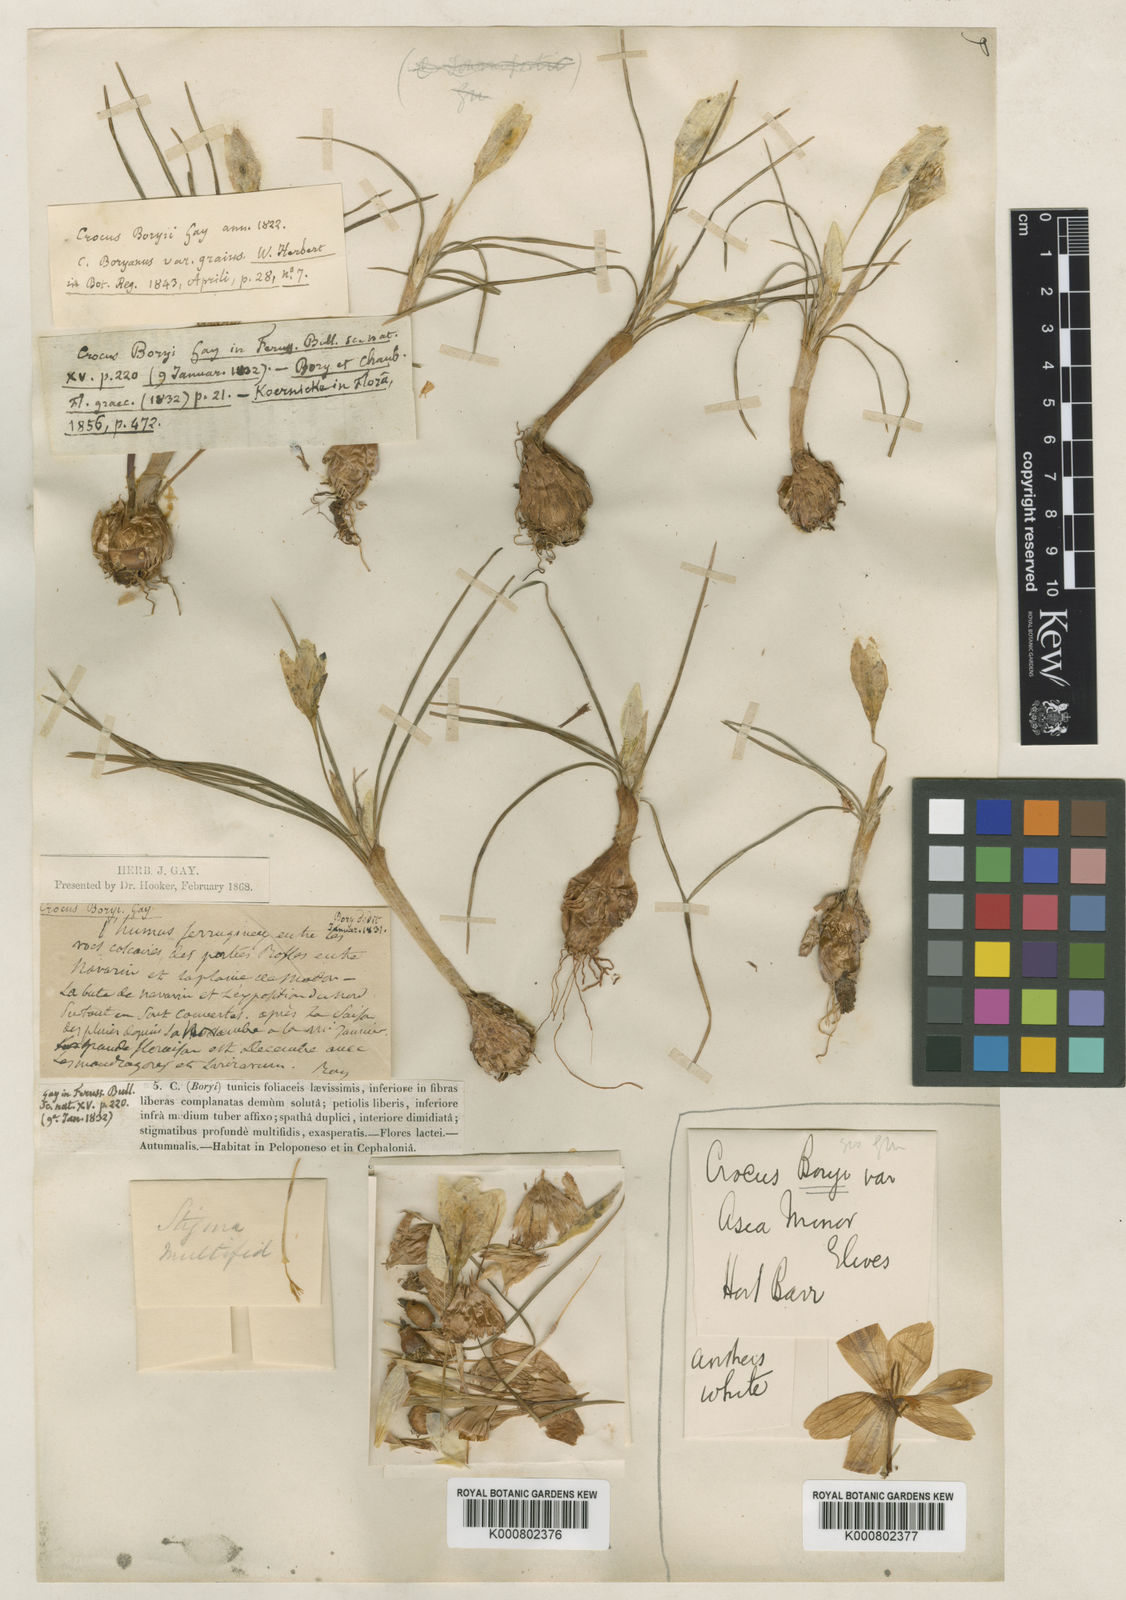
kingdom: Plantae
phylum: Tracheophyta
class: Liliopsida
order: Asparagales
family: Iridaceae
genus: Crocus
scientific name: Crocus boryi
